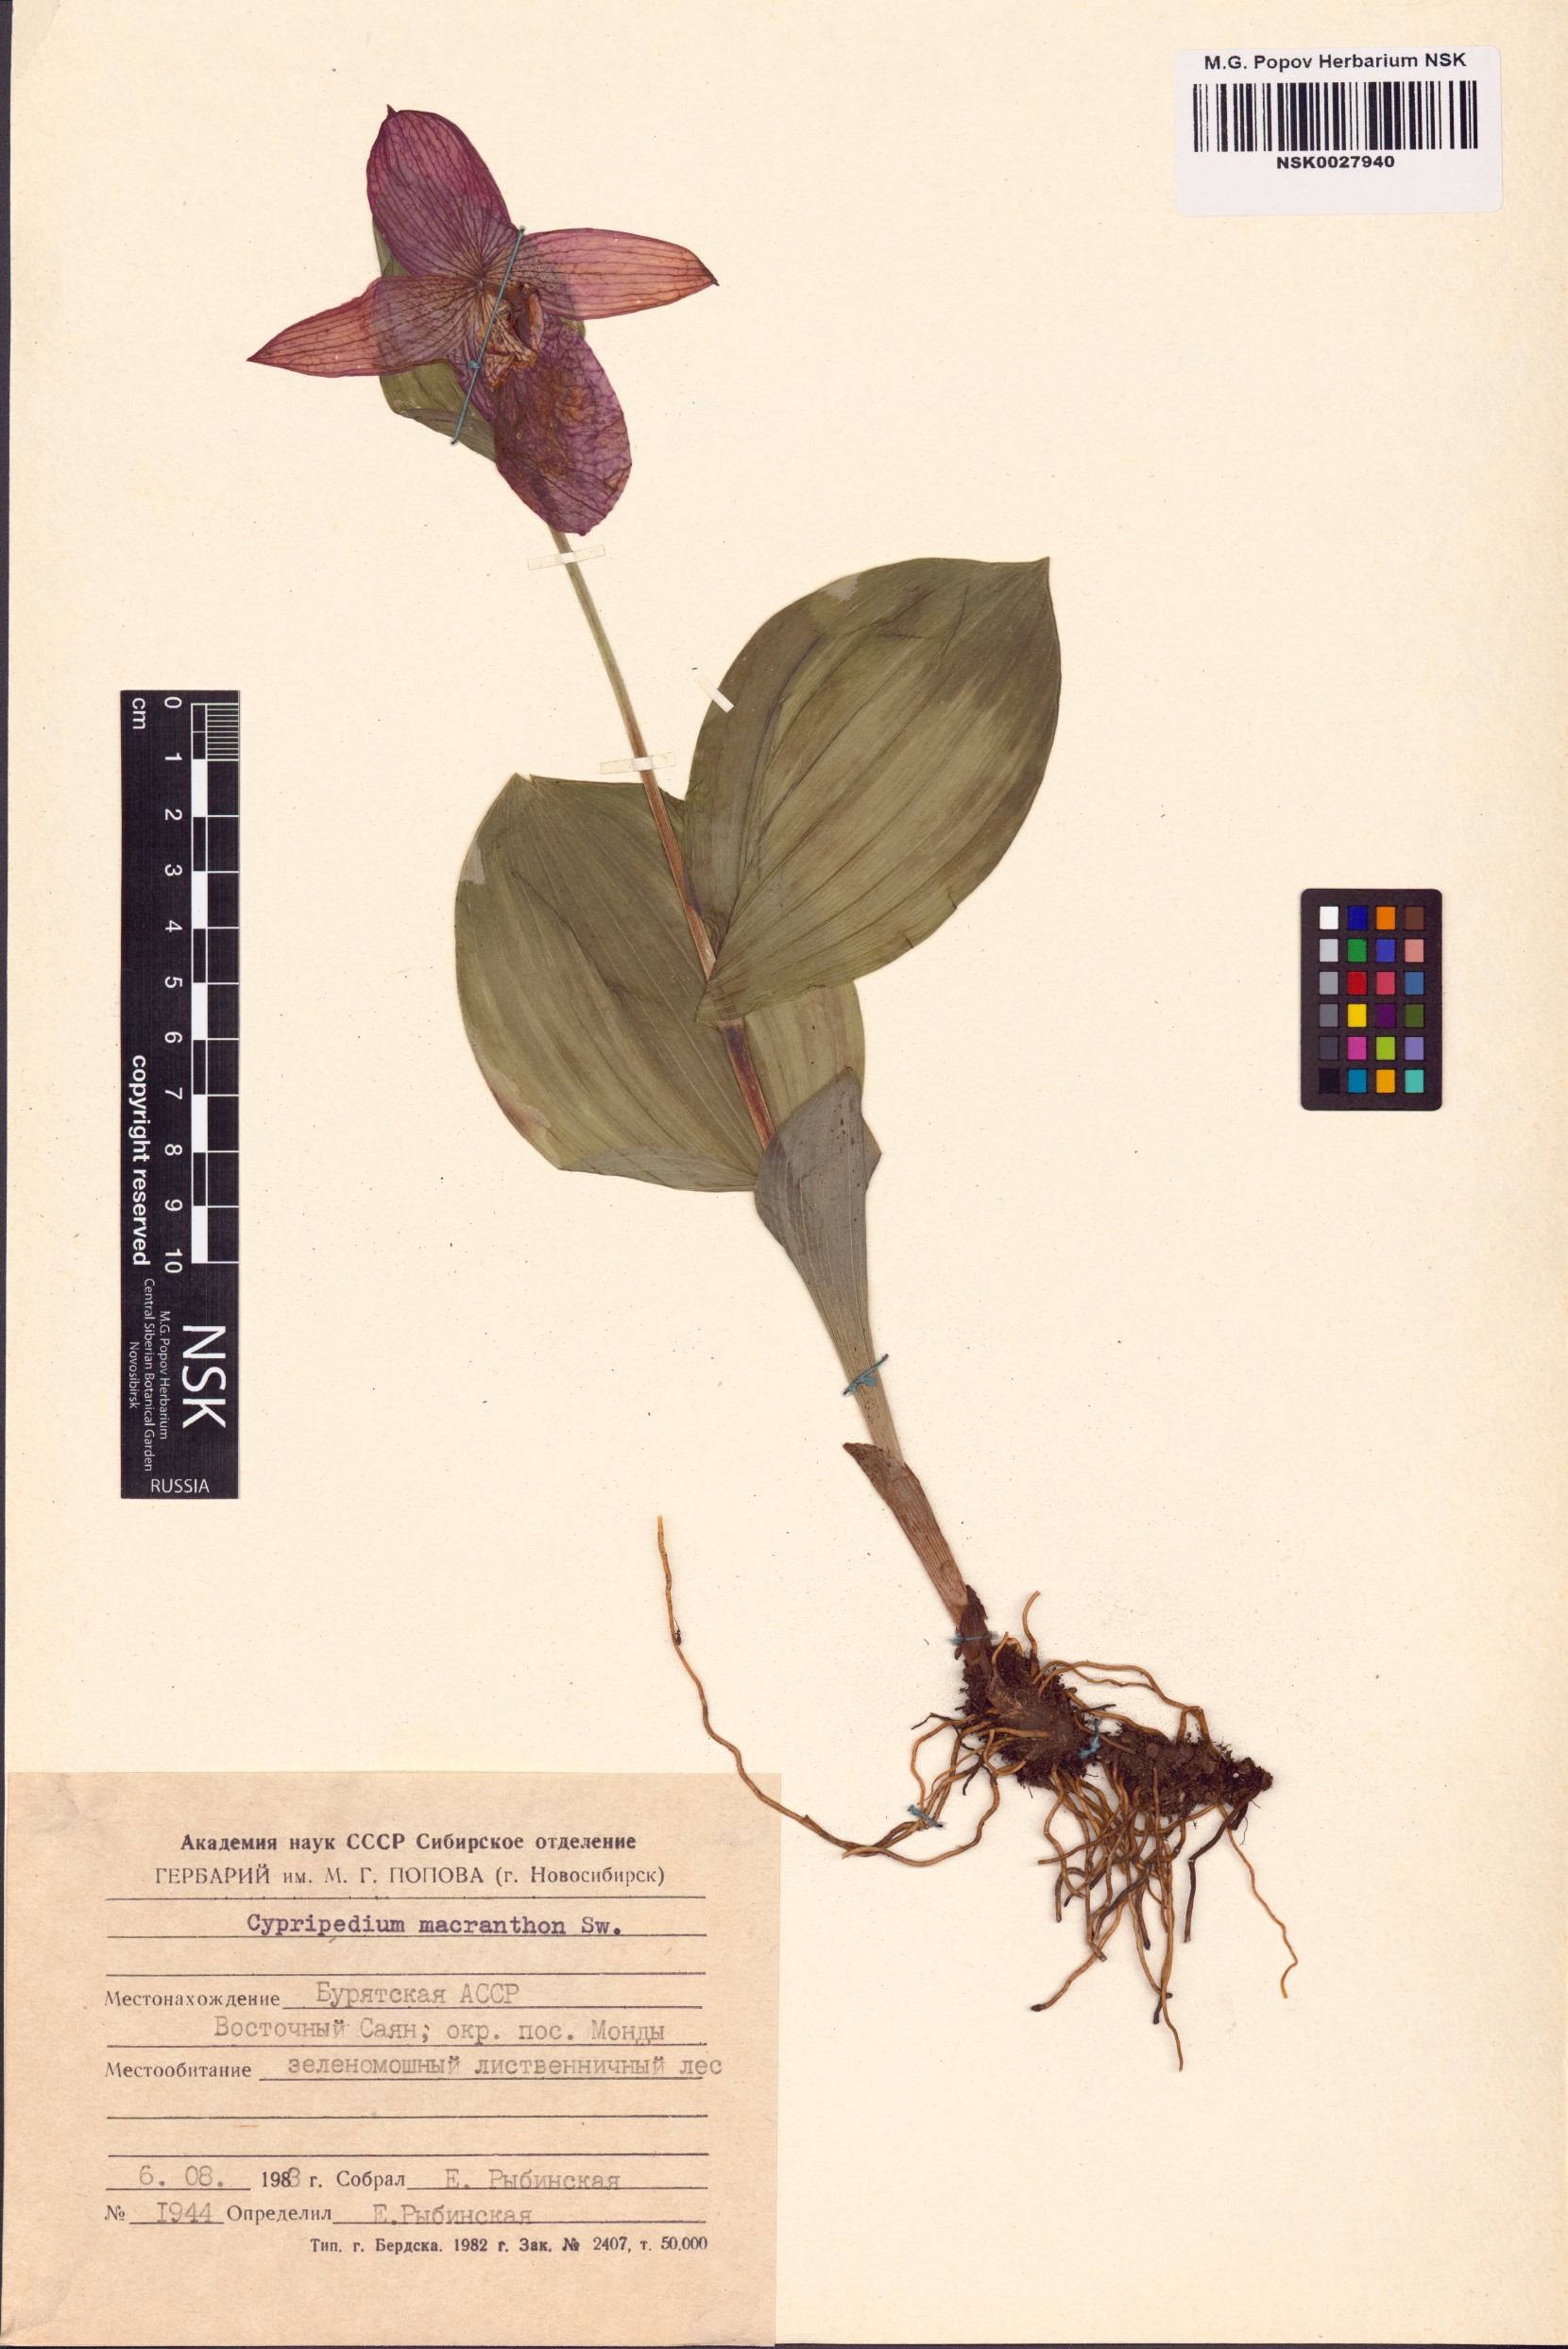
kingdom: Plantae
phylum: Tracheophyta
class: Liliopsida
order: Asparagales
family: Orchidaceae
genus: Cypripedium
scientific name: Cypripedium macranthos
